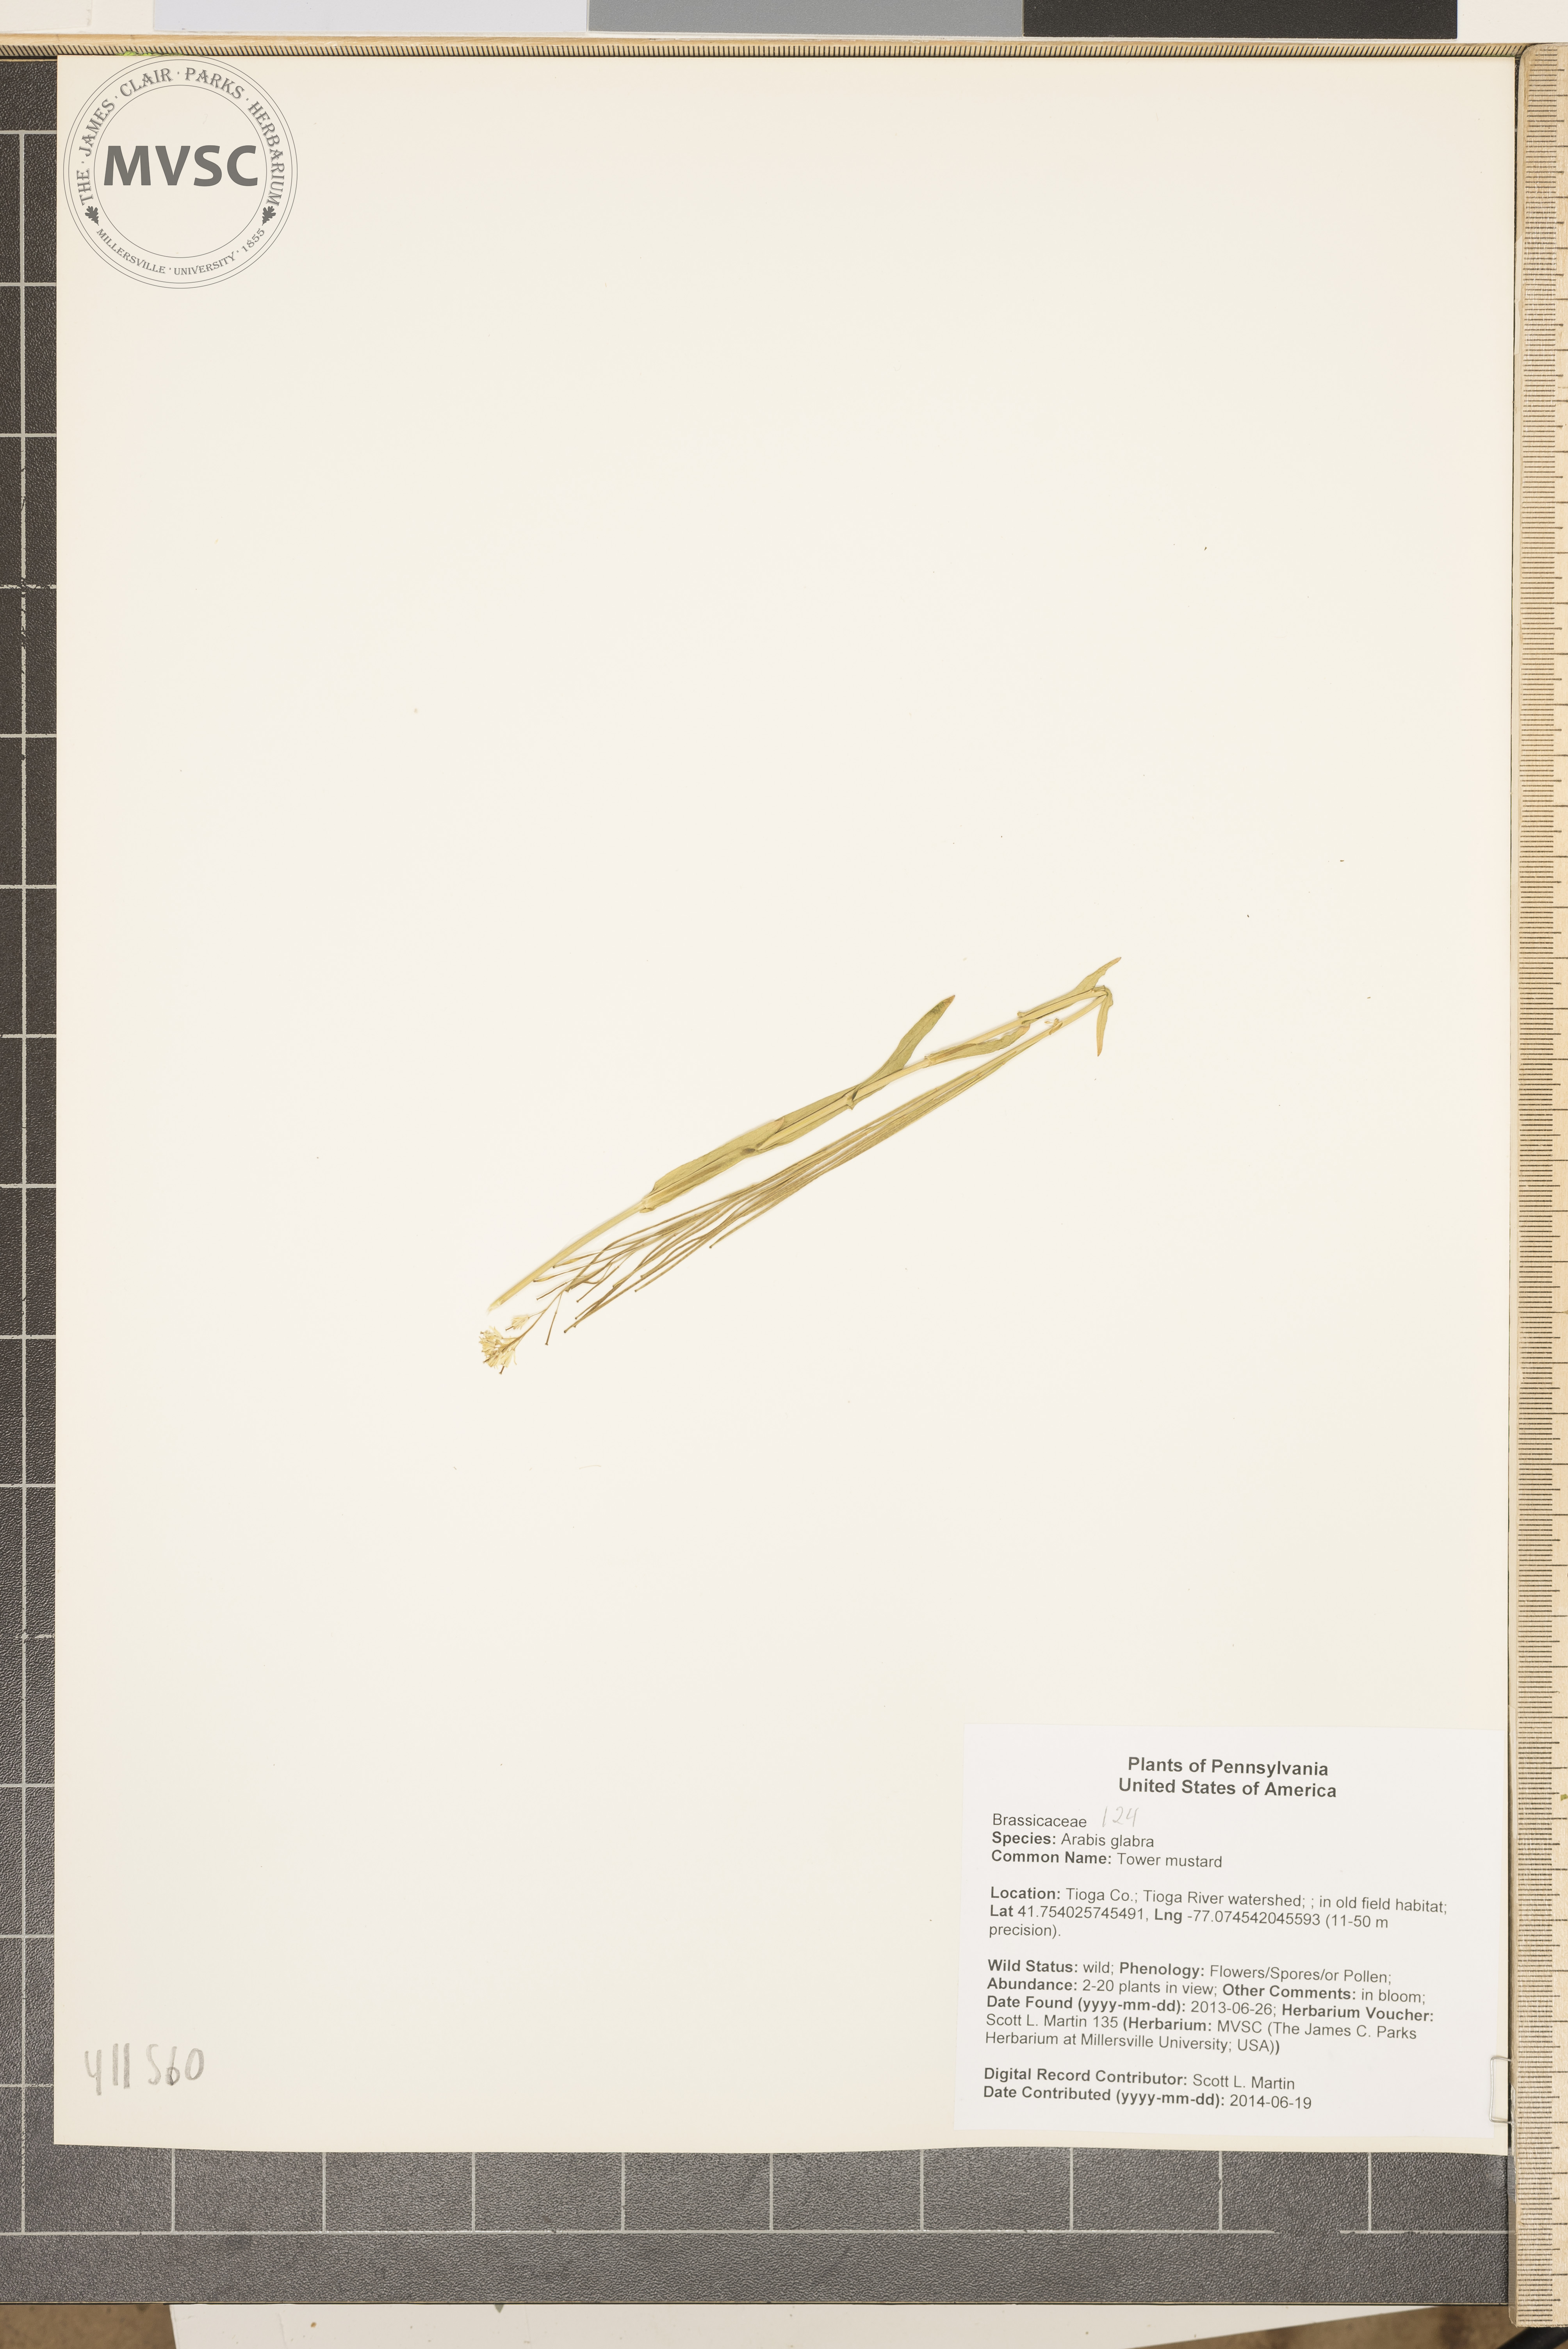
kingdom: Plantae
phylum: Tracheophyta
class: Magnoliopsida
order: Brassicales
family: Brassicaceae
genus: Turritis
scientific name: Turritis glabra
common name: Tower mustard
